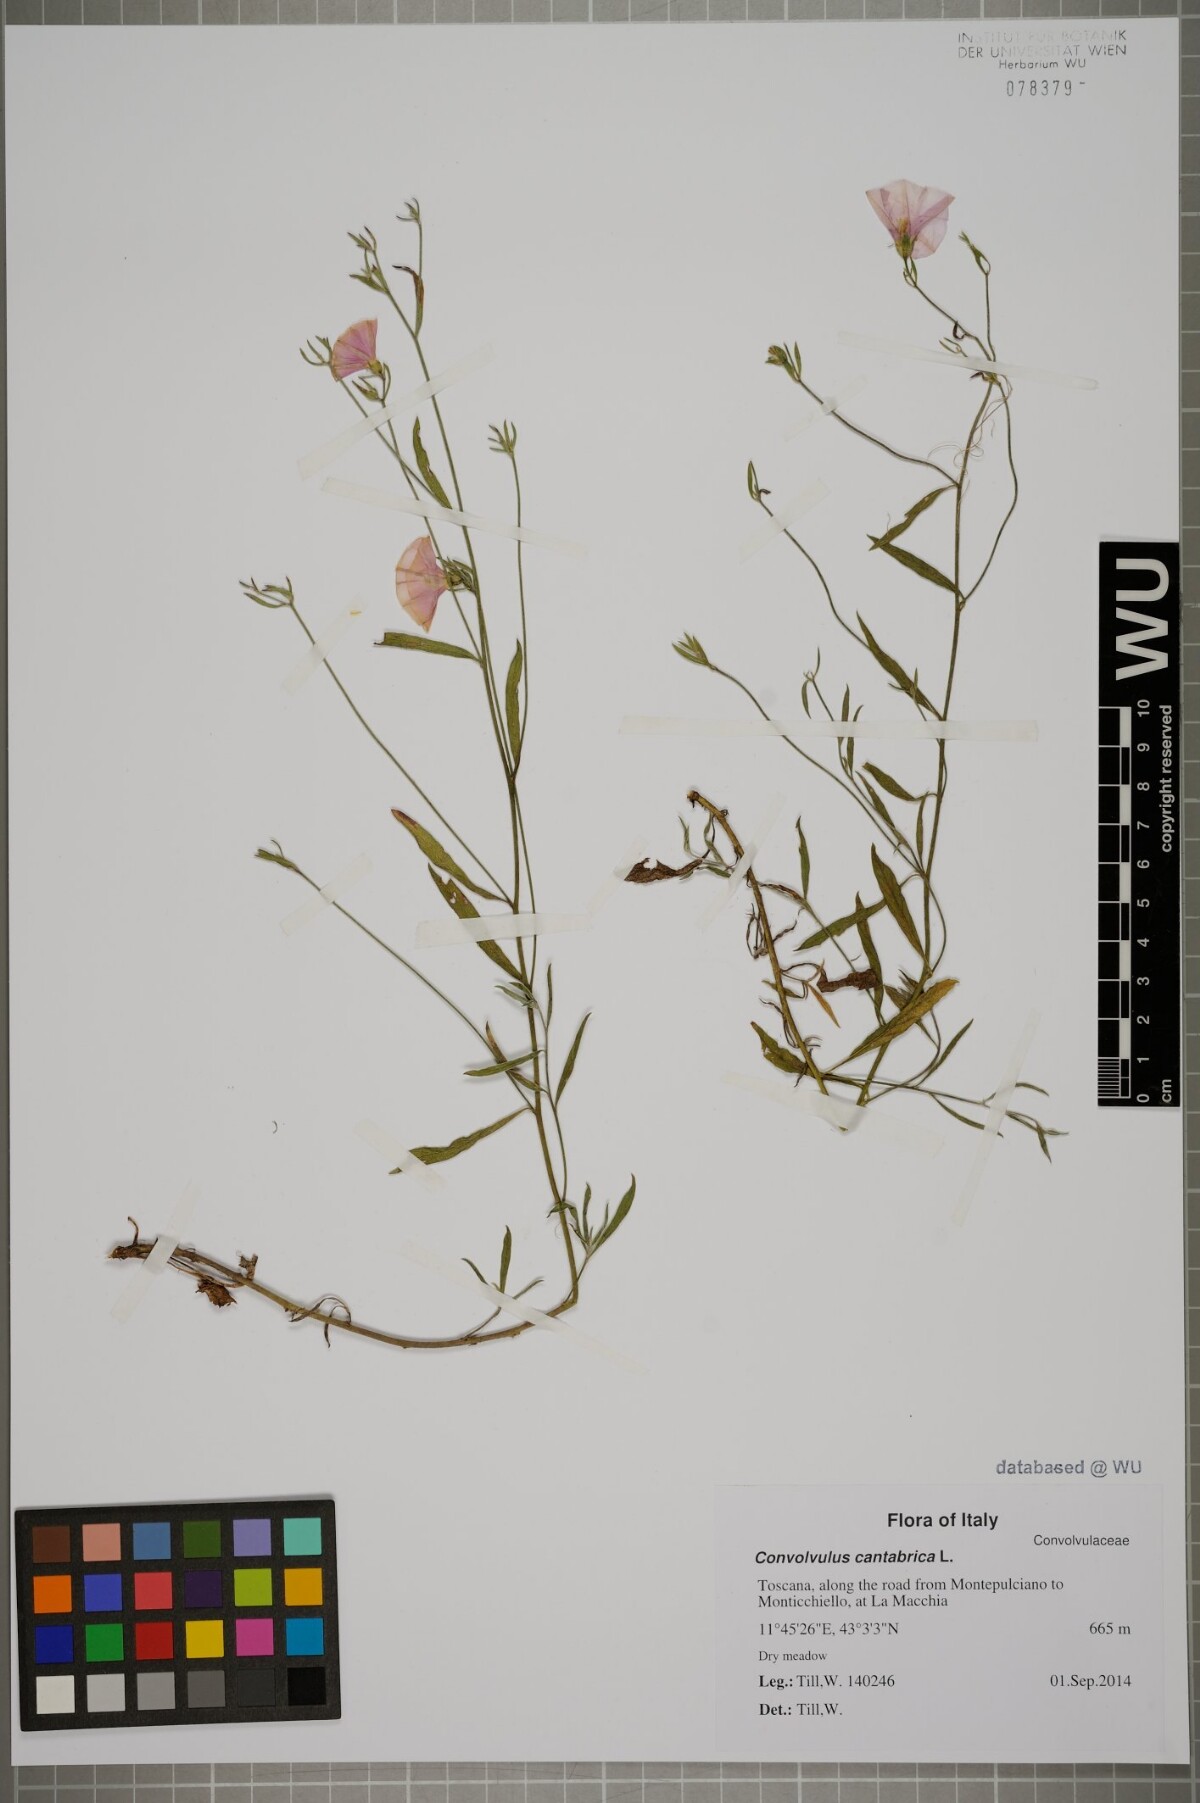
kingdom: Plantae
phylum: Tracheophyta
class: Magnoliopsida
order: Solanales
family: Convolvulaceae
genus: Convolvulus
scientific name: Convolvulus cantabrica
